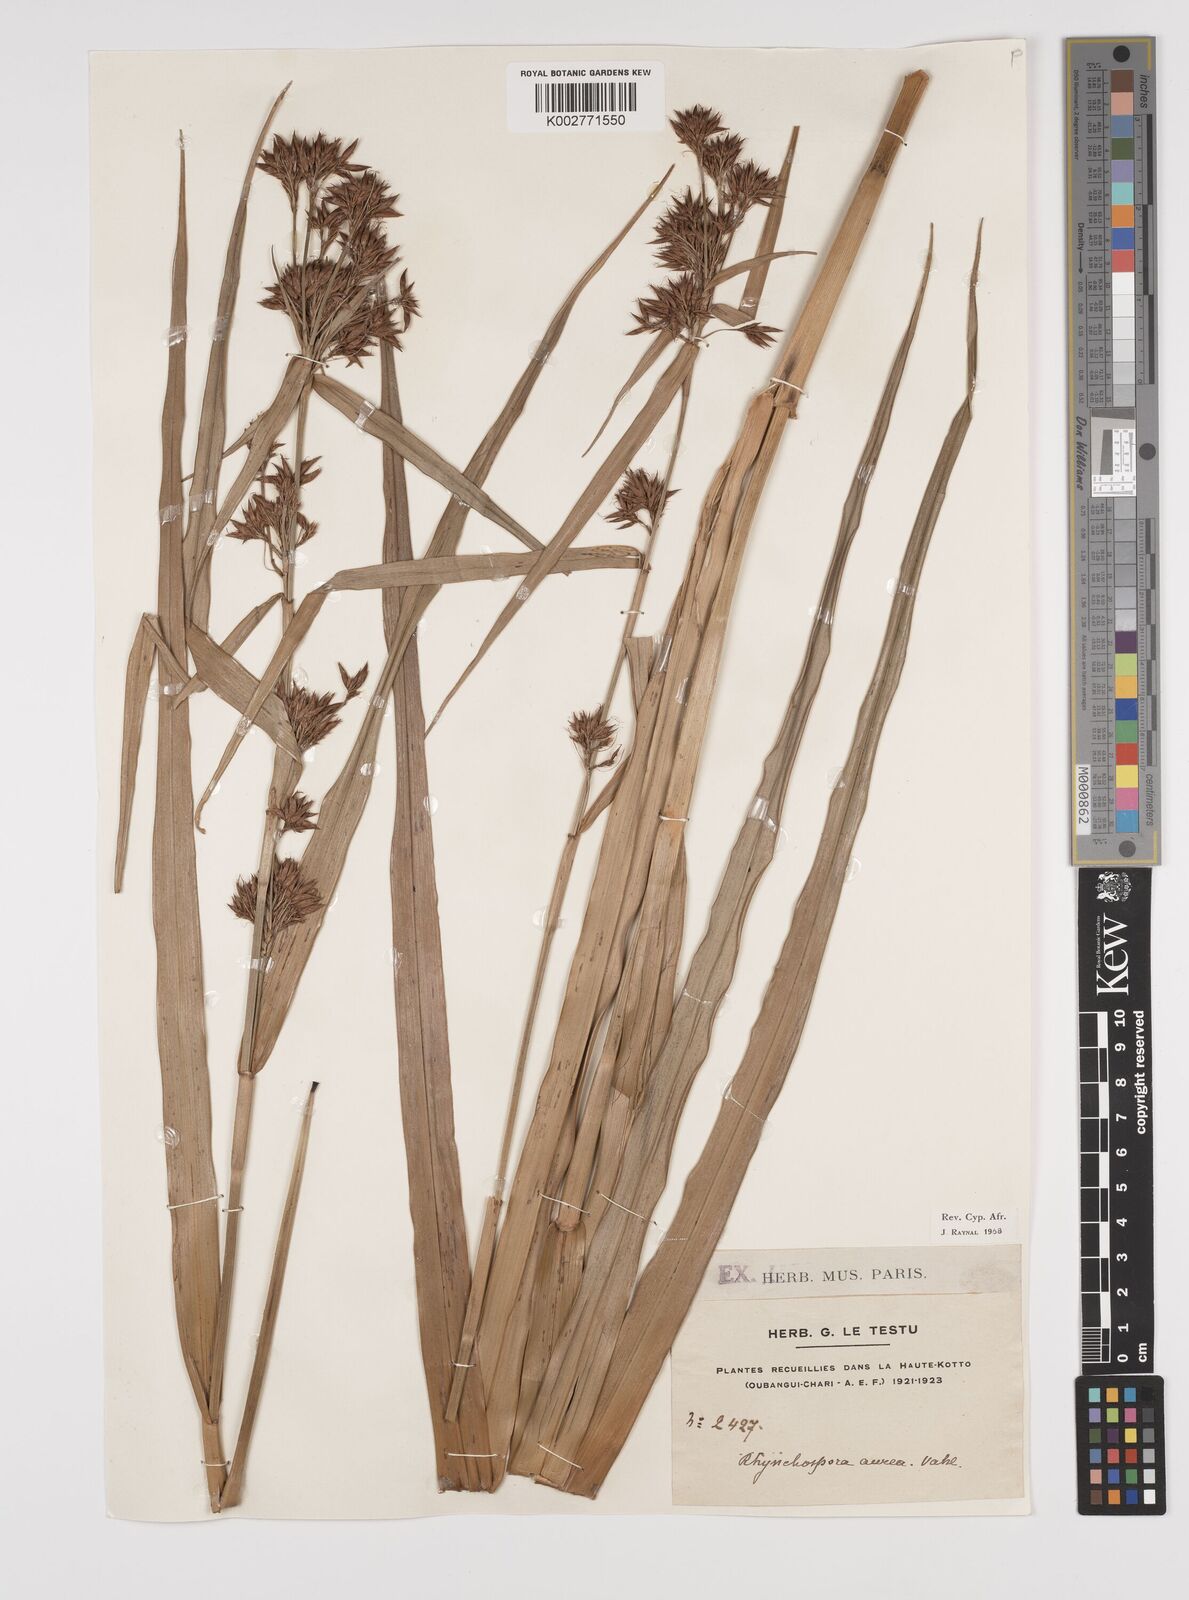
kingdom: Plantae
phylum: Tracheophyta
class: Liliopsida
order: Poales
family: Cyperaceae
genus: Rhynchospora
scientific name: Rhynchospora corymbosa
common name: Golden beak sedge
